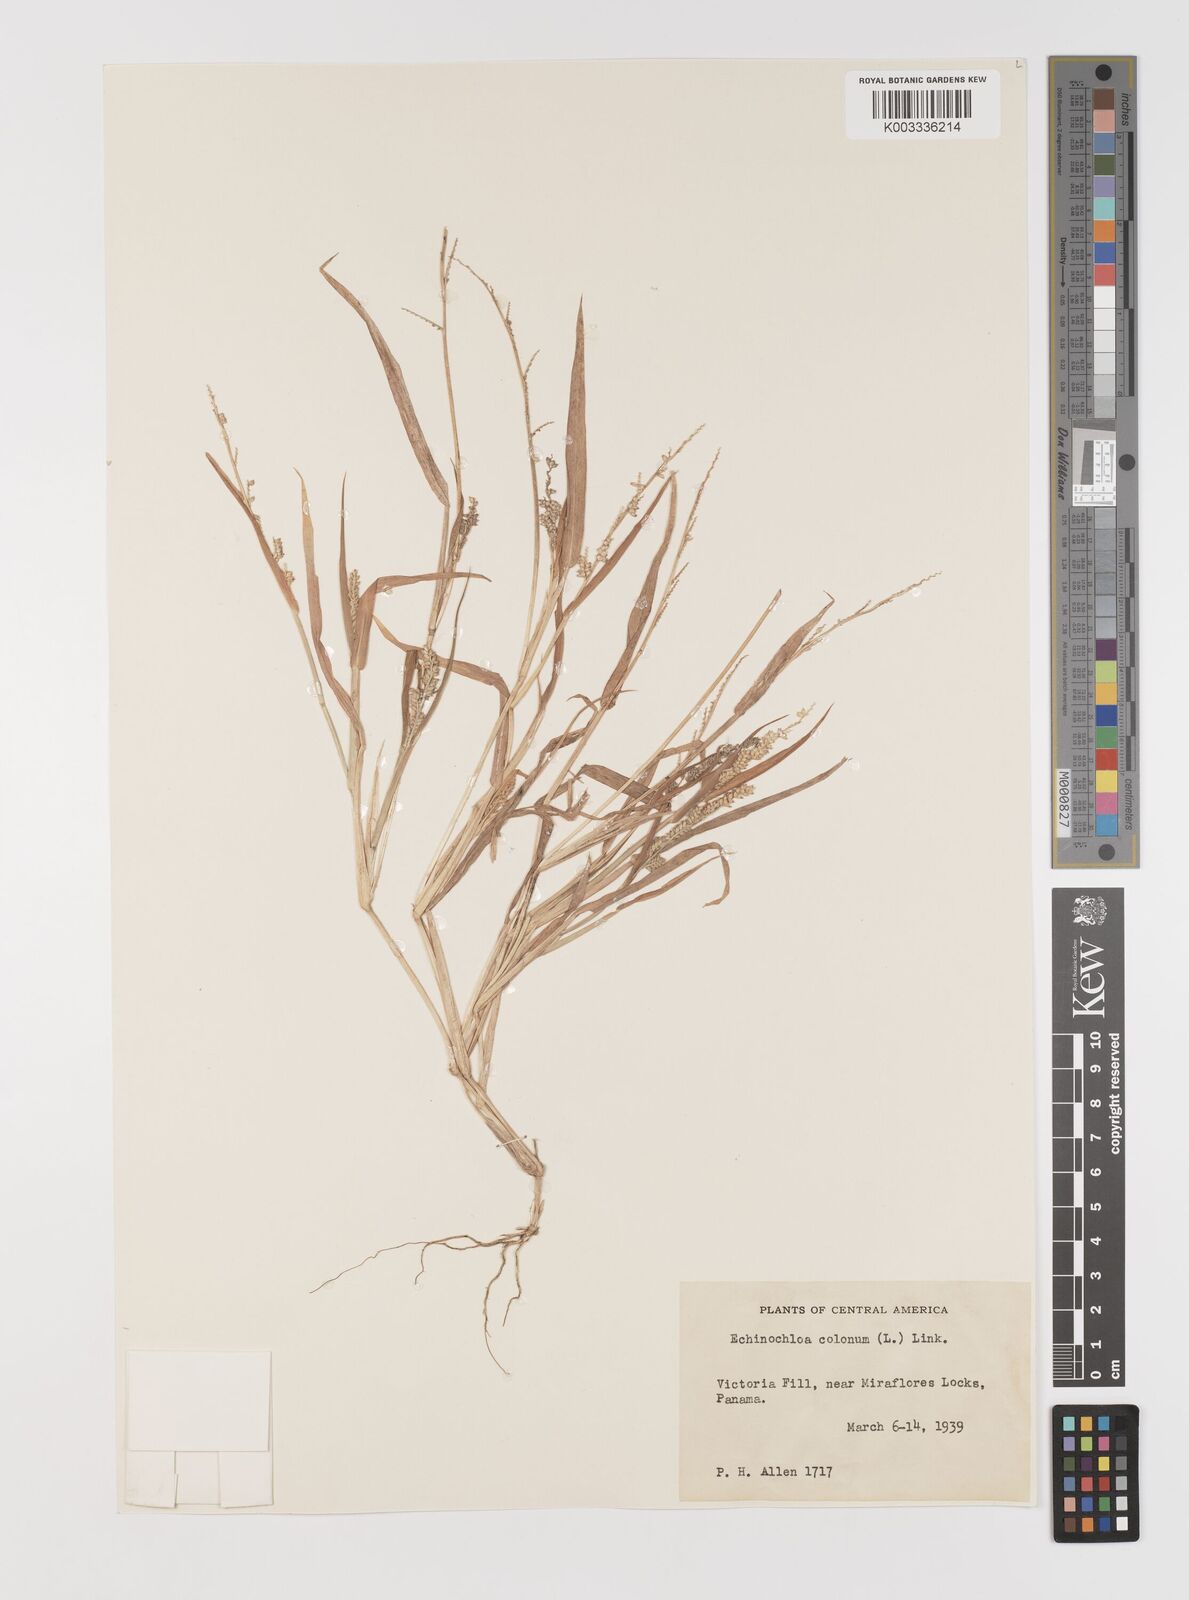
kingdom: Plantae
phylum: Tracheophyta
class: Liliopsida
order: Poales
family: Poaceae
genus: Echinochloa
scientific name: Echinochloa colonum
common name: Jungle rice
